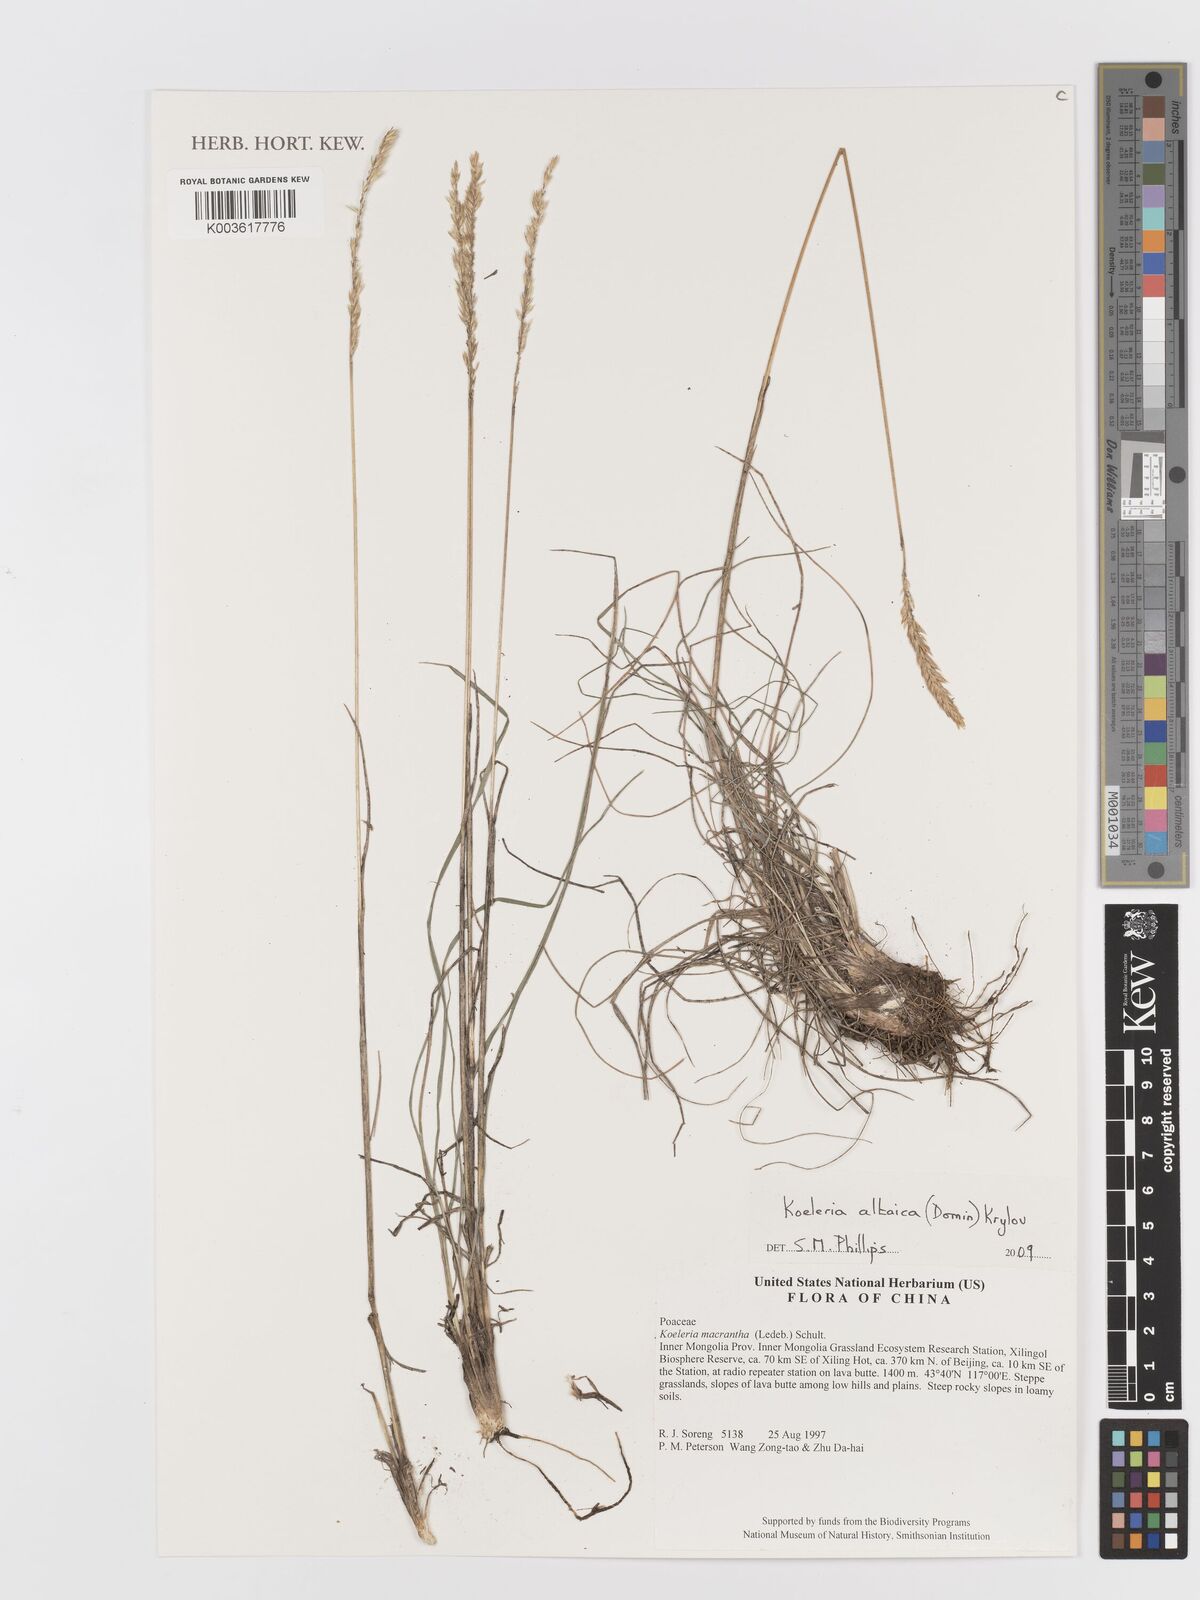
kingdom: Plantae
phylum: Tracheophyta
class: Liliopsida
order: Poales
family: Poaceae
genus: Koeleria
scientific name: Koeleria altaica
